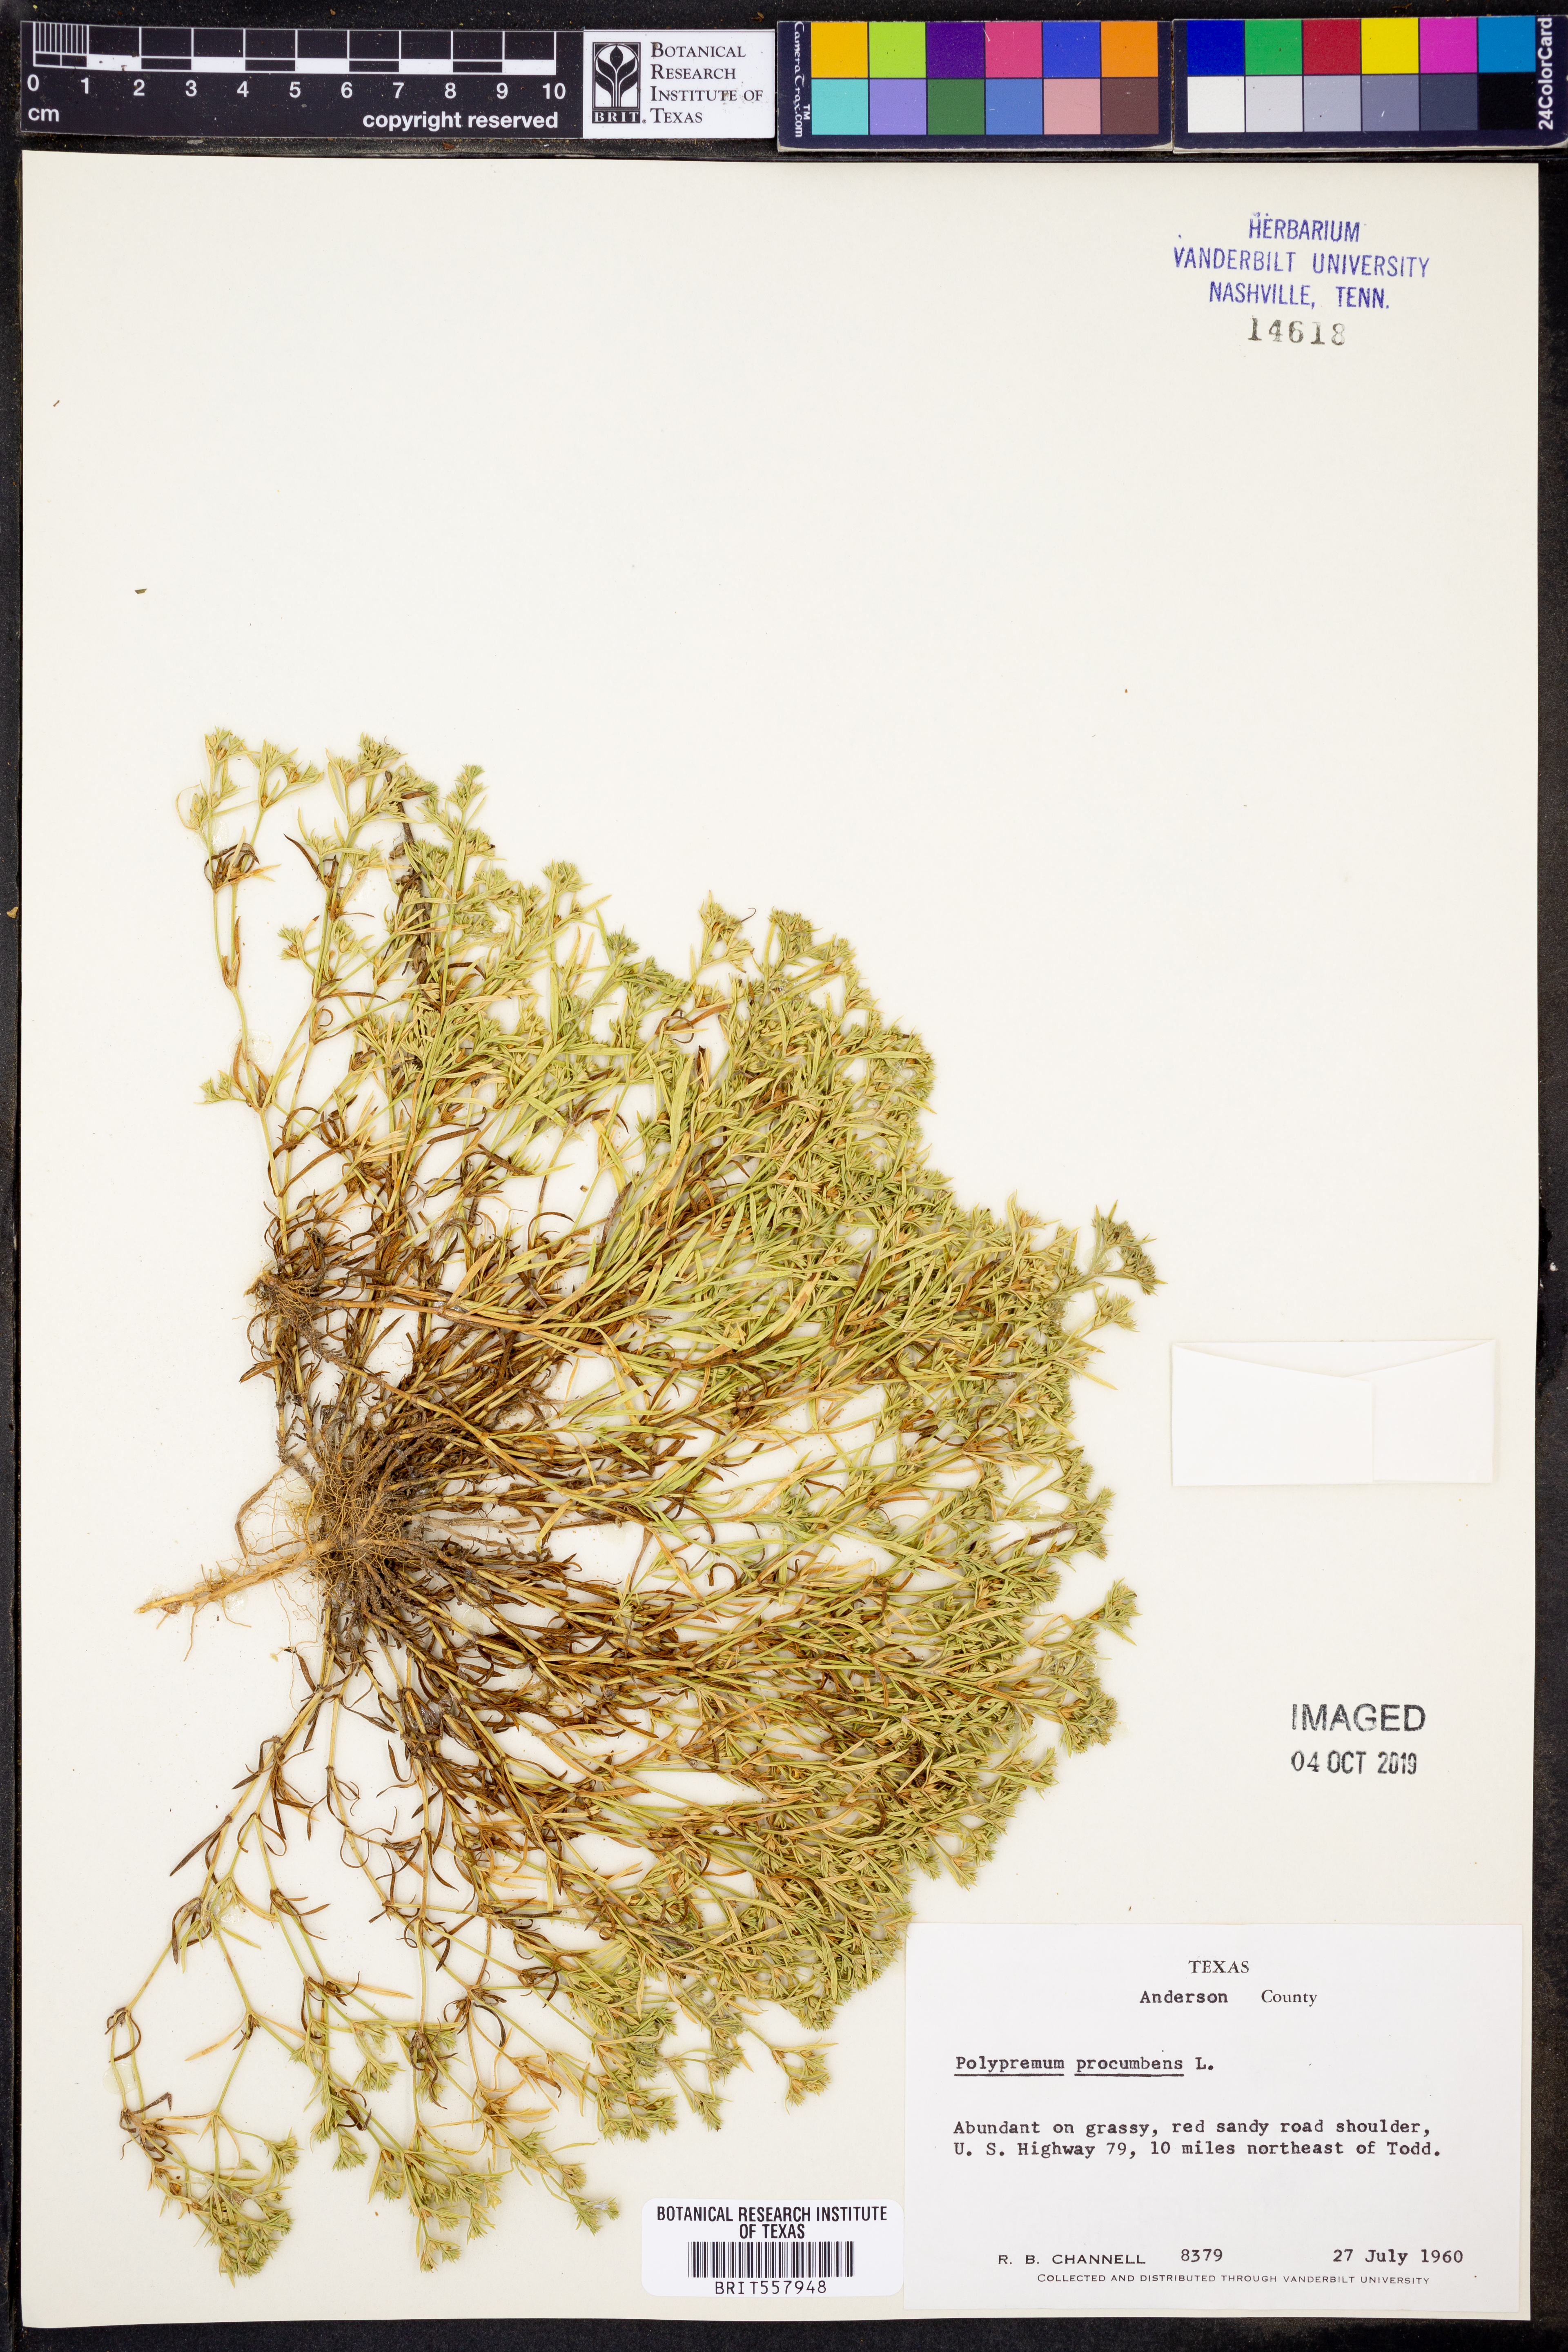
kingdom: Plantae
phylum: Tracheophyta
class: Magnoliopsida
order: Lamiales
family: Tetrachondraceae
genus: Polypremum
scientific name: Polypremum procumbens
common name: Juniper-leaf
